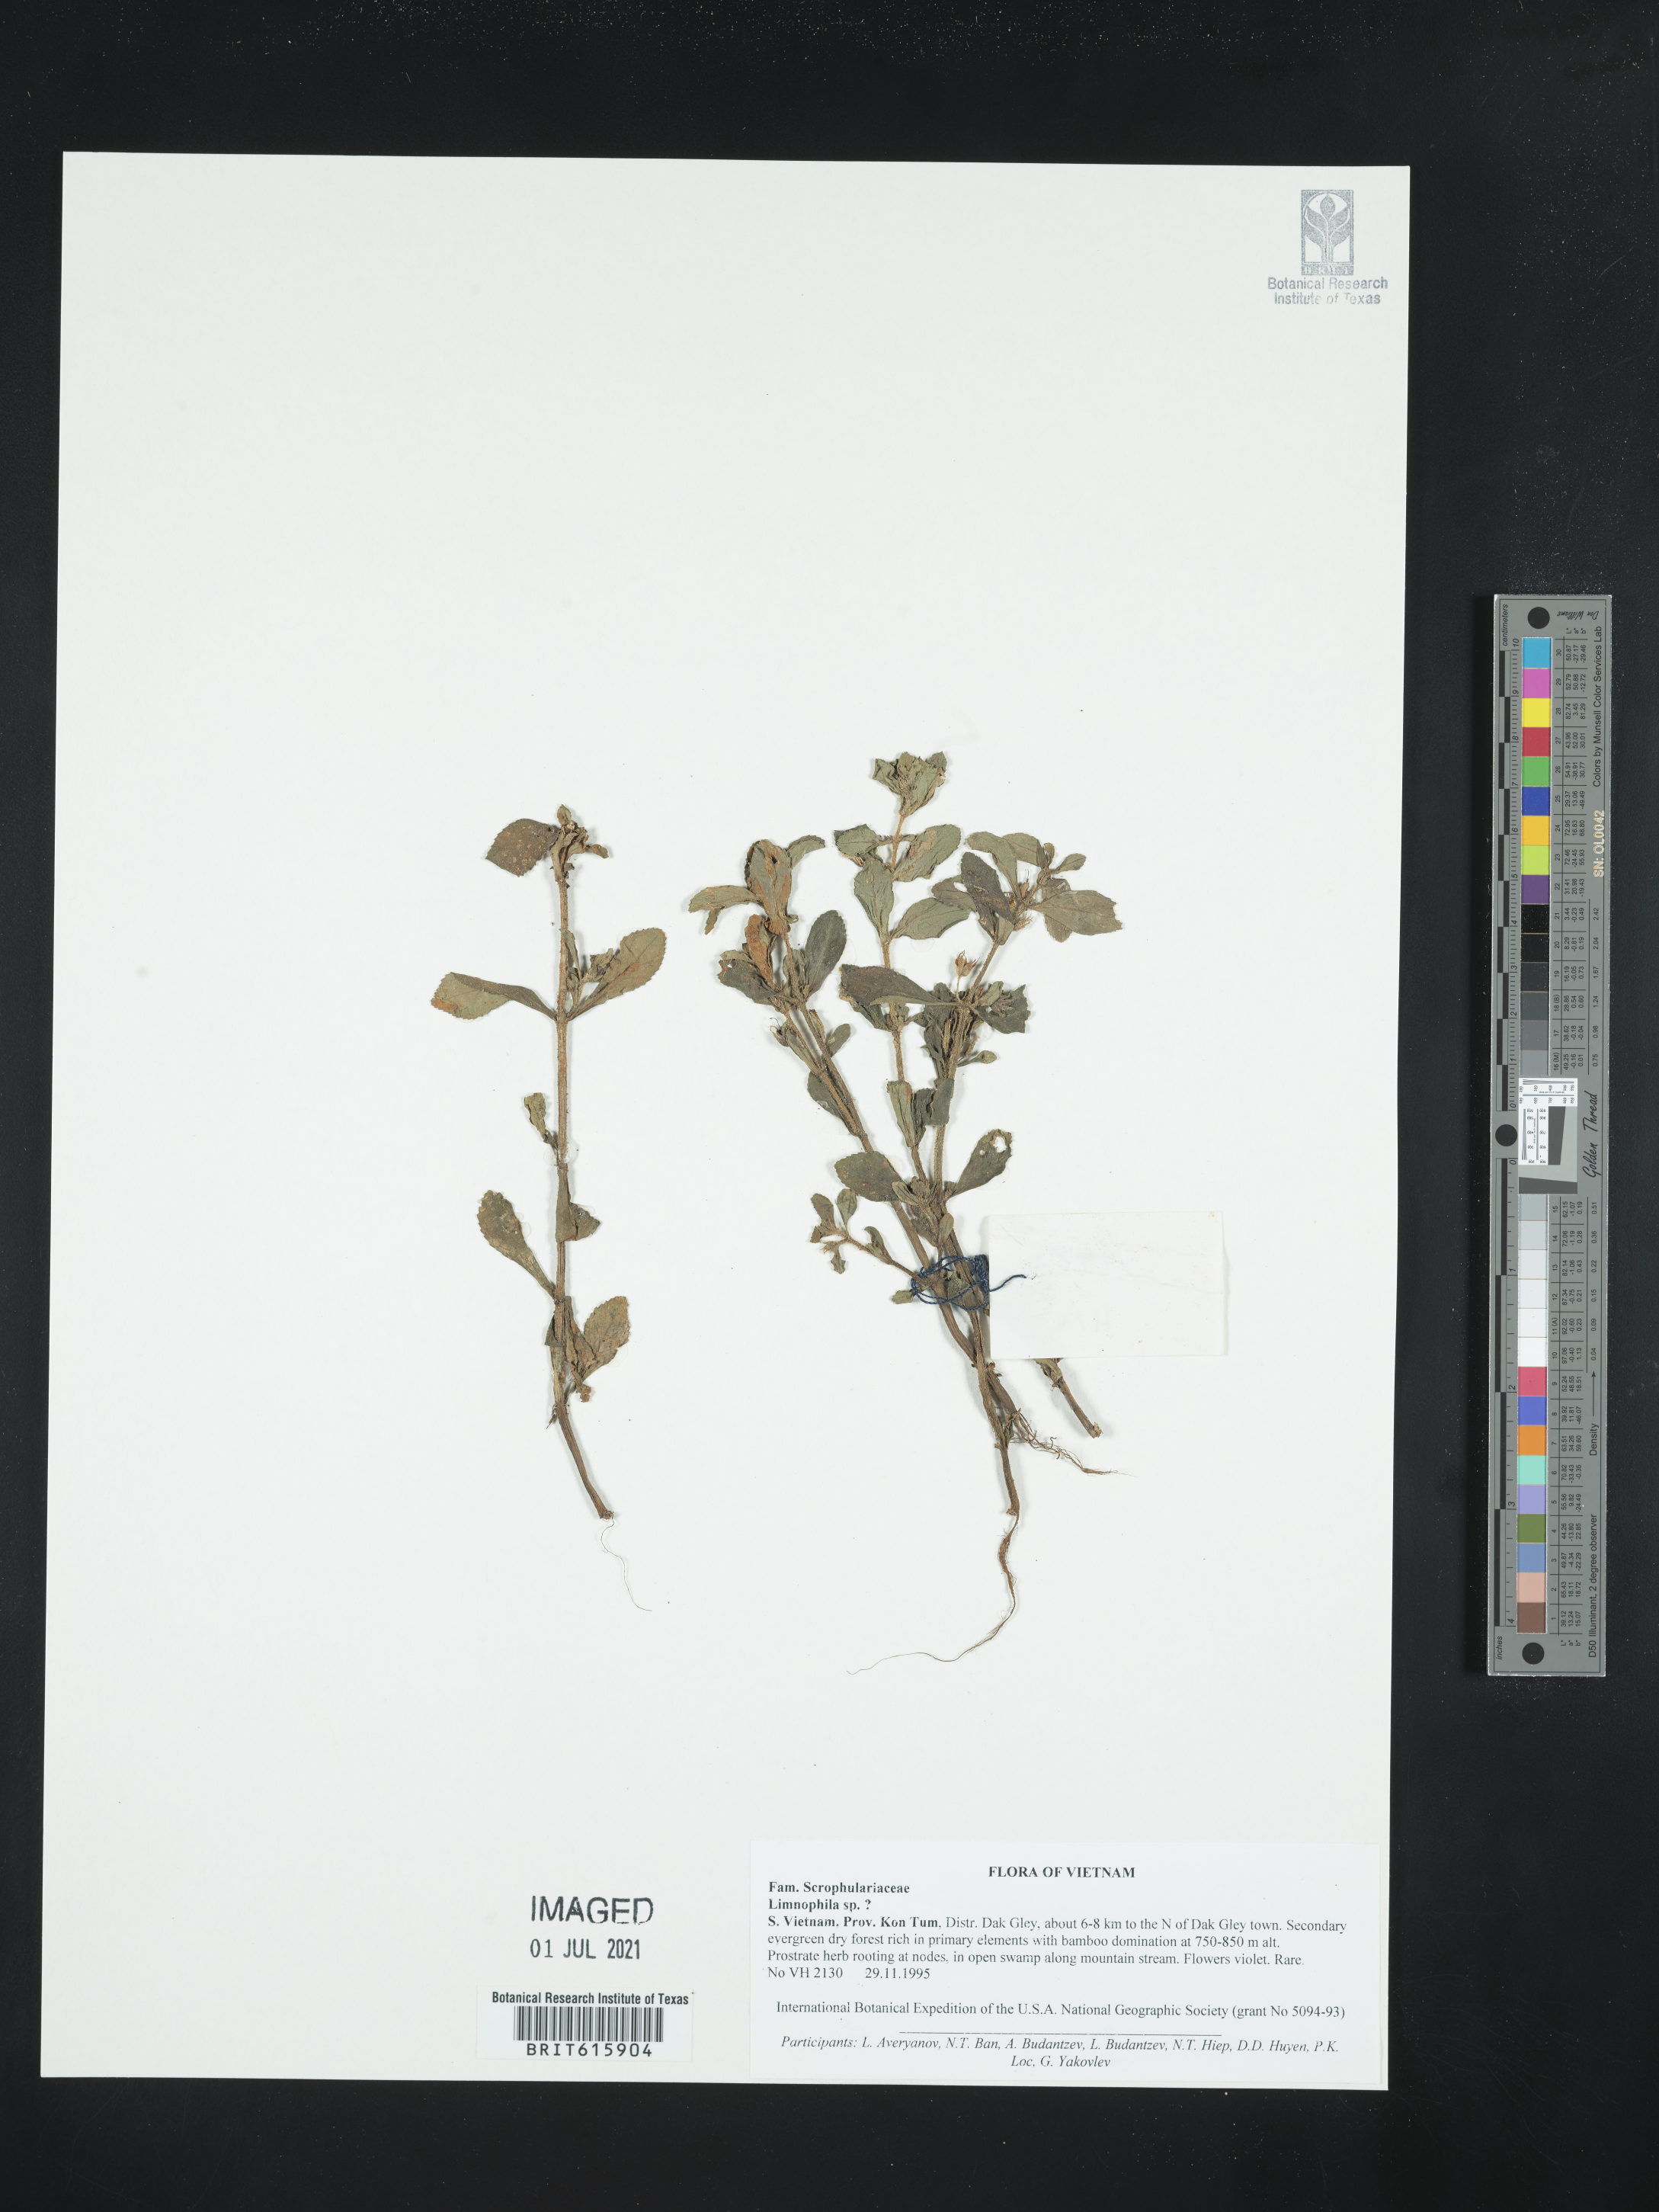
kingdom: Plantae
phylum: Tracheophyta
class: Magnoliopsida
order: Lamiales
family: Plantaginaceae
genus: Limnophila
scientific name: Limnophila
